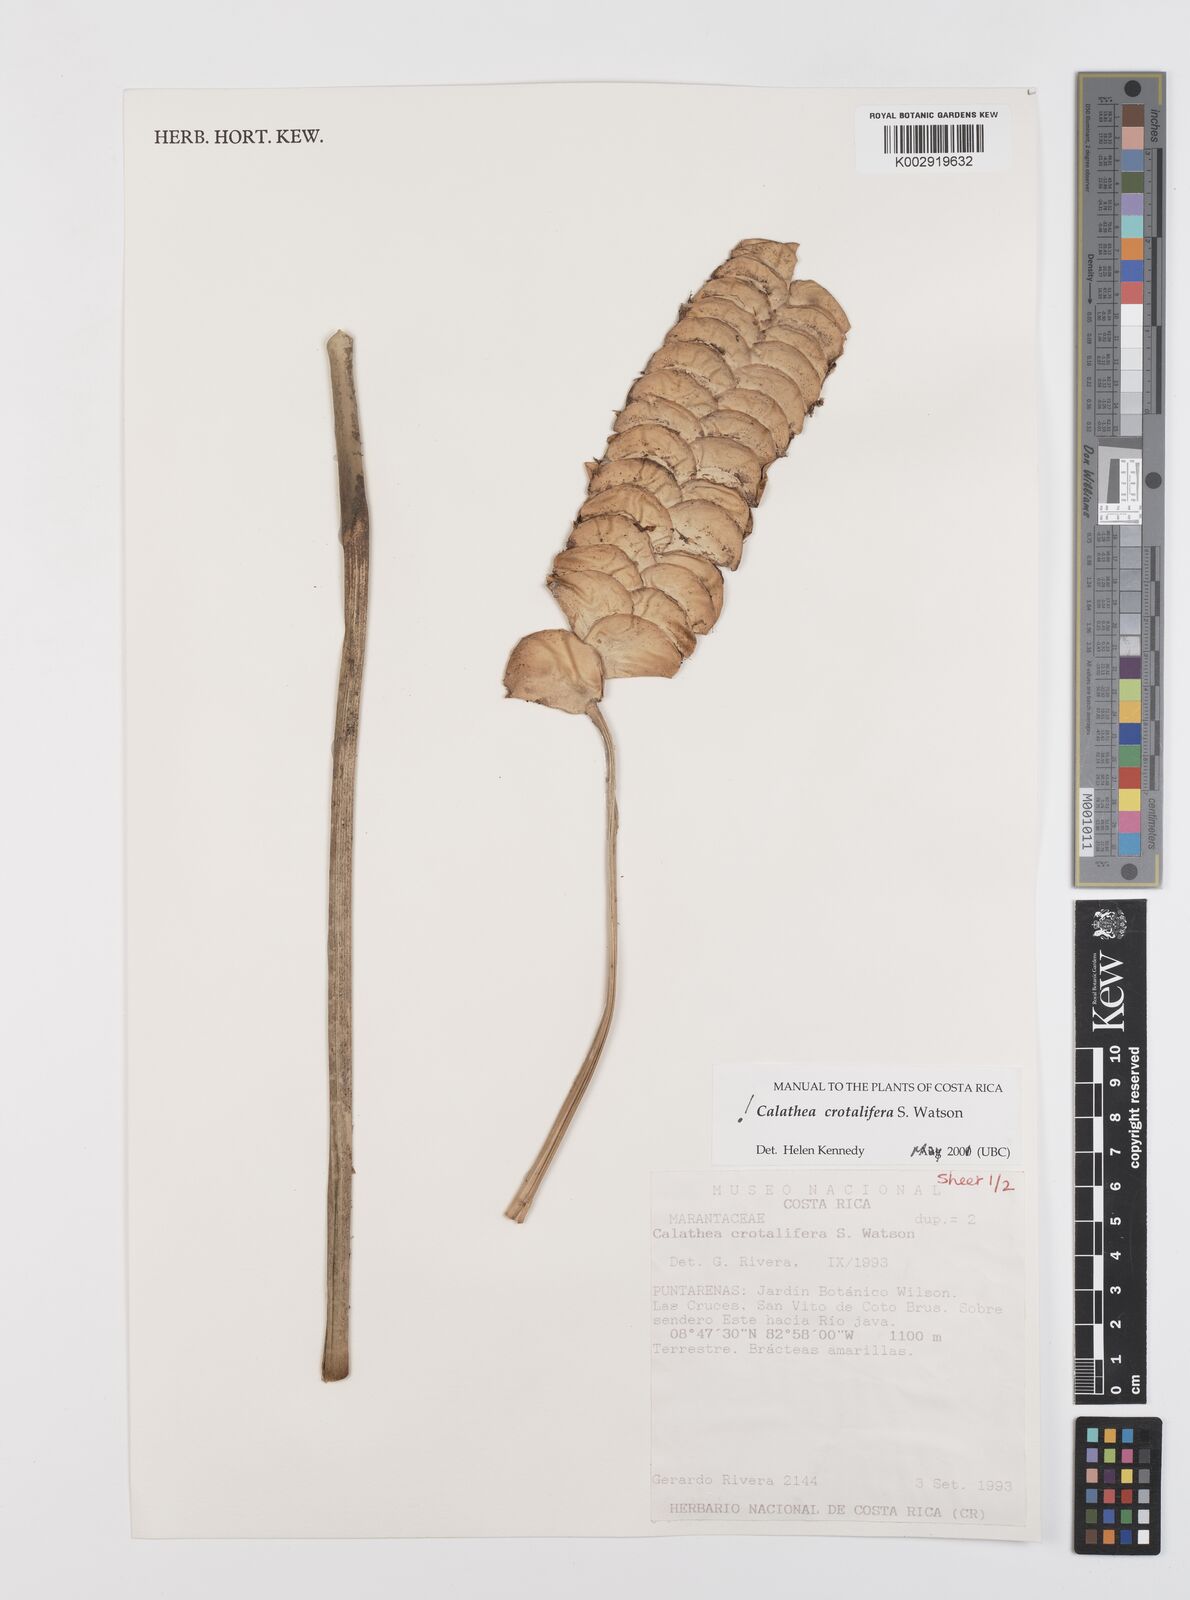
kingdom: Plantae
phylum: Tracheophyta
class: Liliopsida
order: Zingiberales
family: Marantaceae
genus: Calathea
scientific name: Calathea crotalifera
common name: Rattlesnake plant
